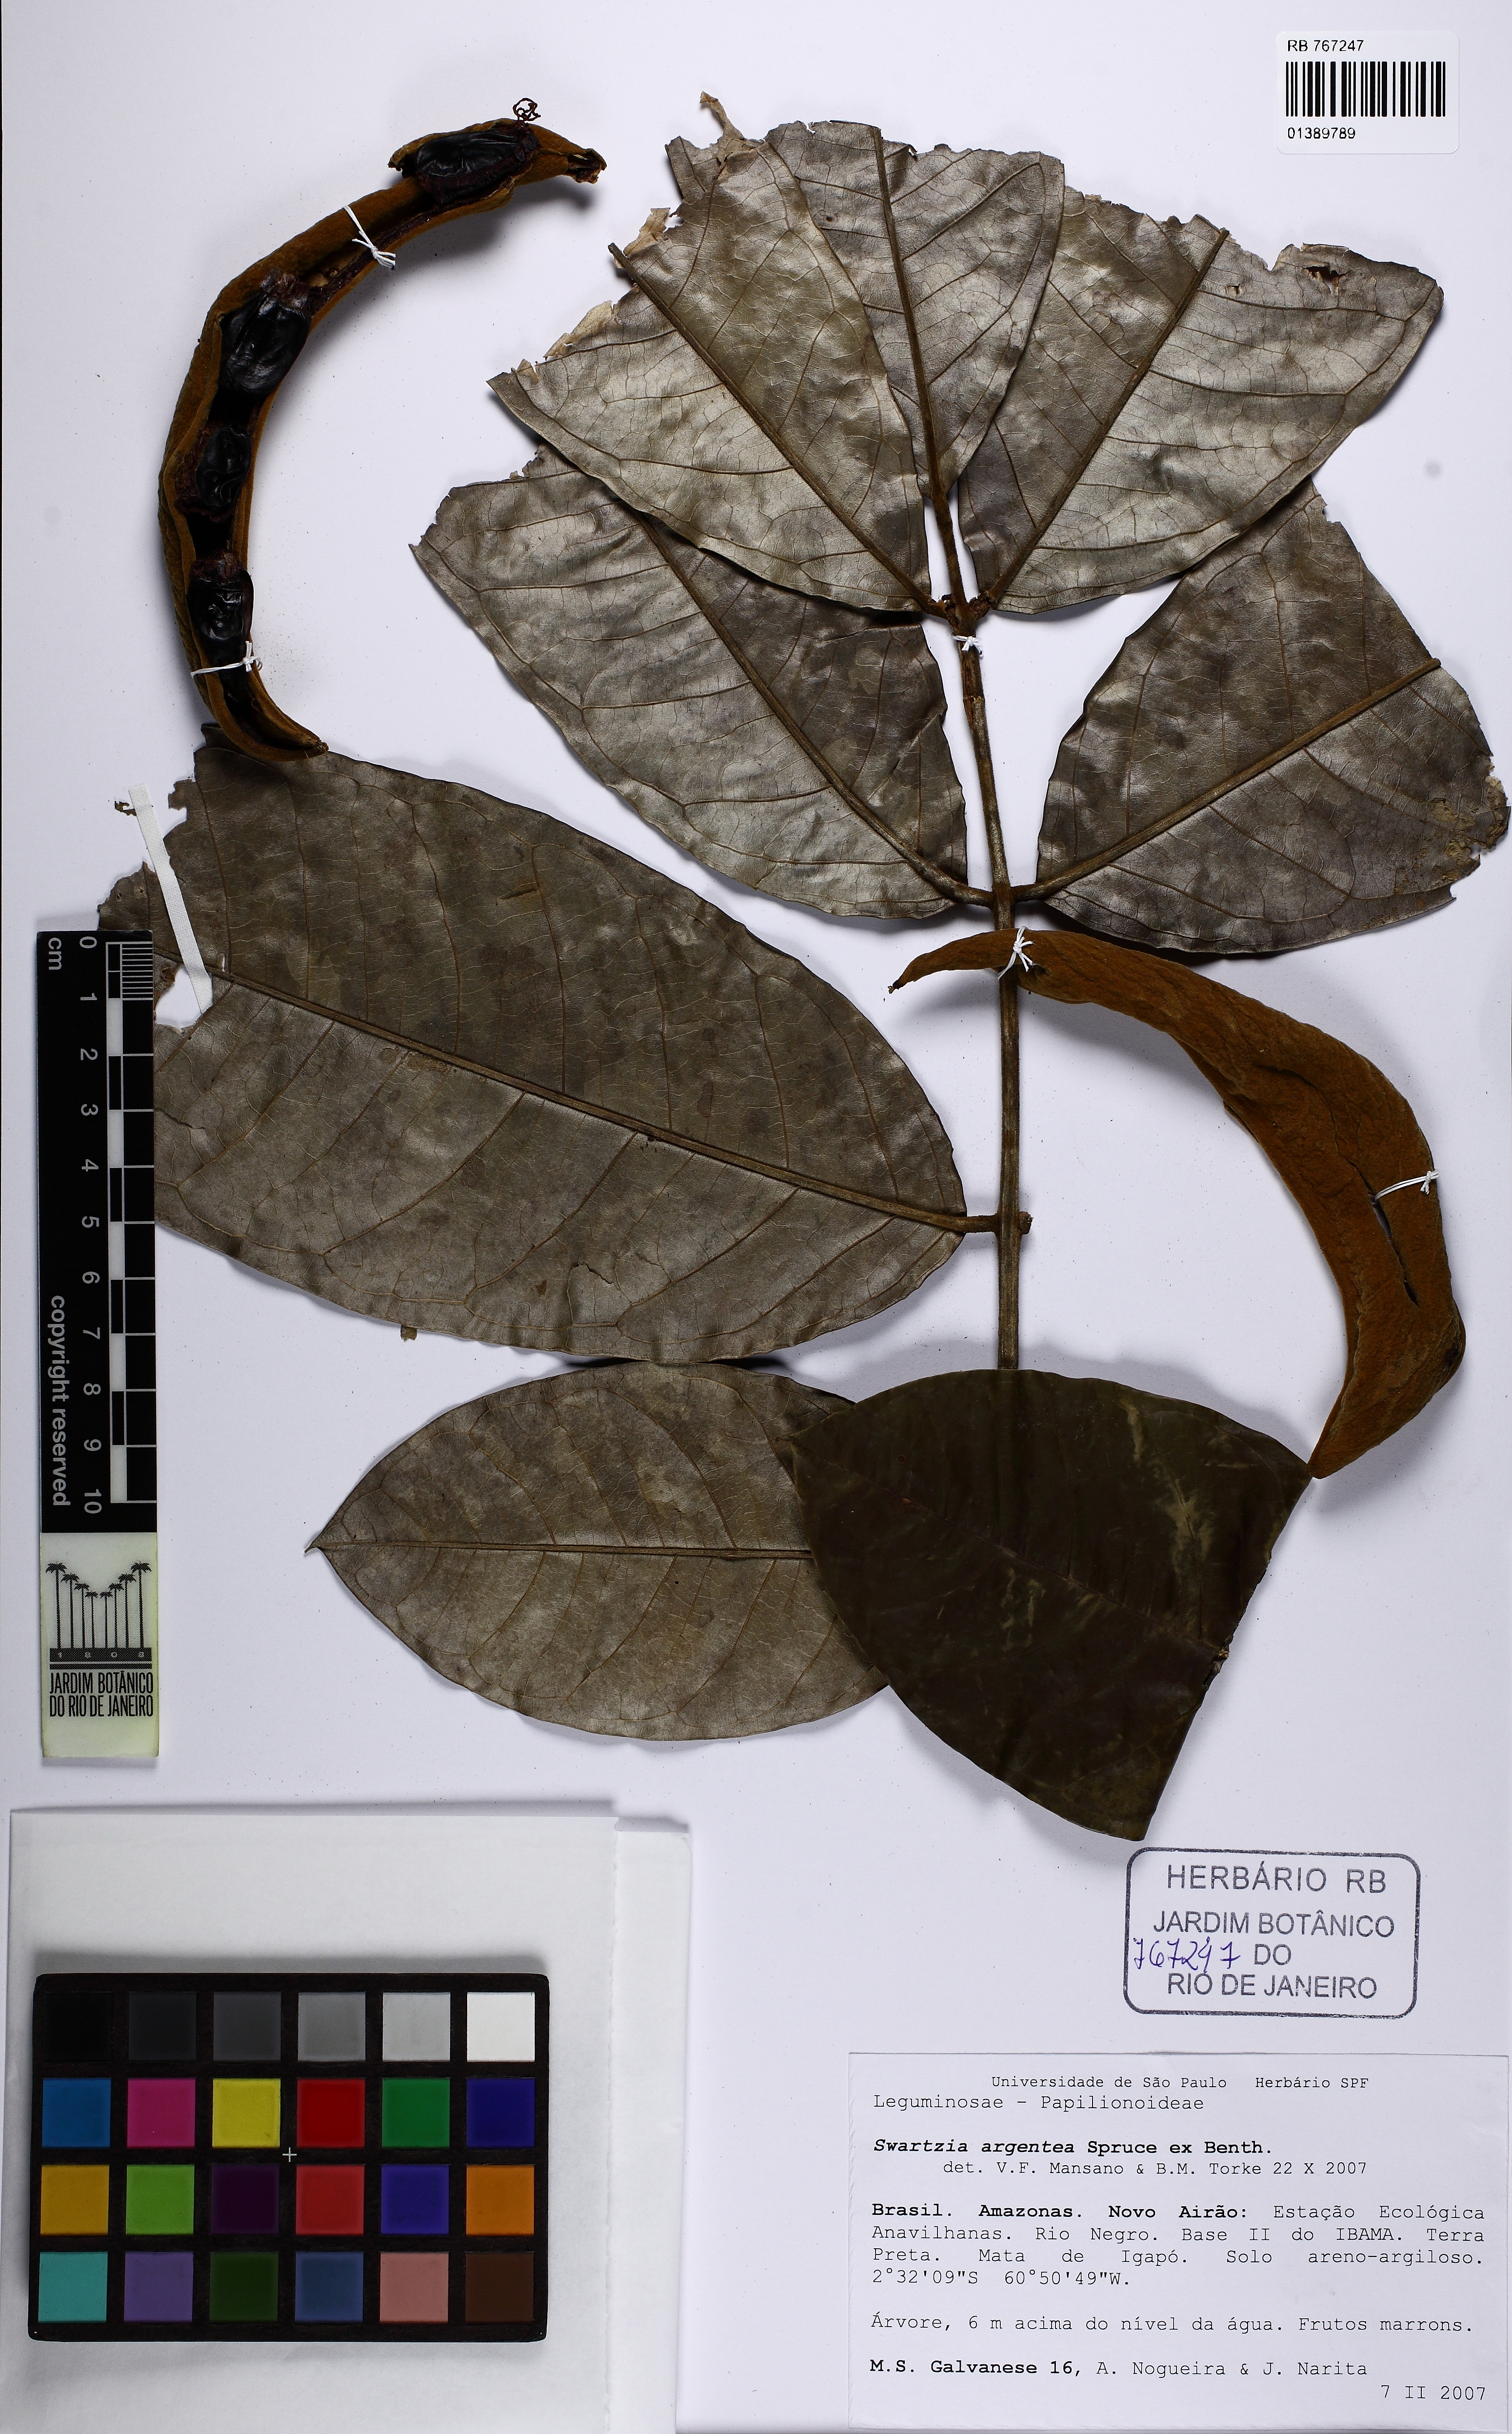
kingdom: Plantae
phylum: Tracheophyta
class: Magnoliopsida
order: Fabales
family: Fabaceae
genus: Swartzia
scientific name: Swartzia argentea
